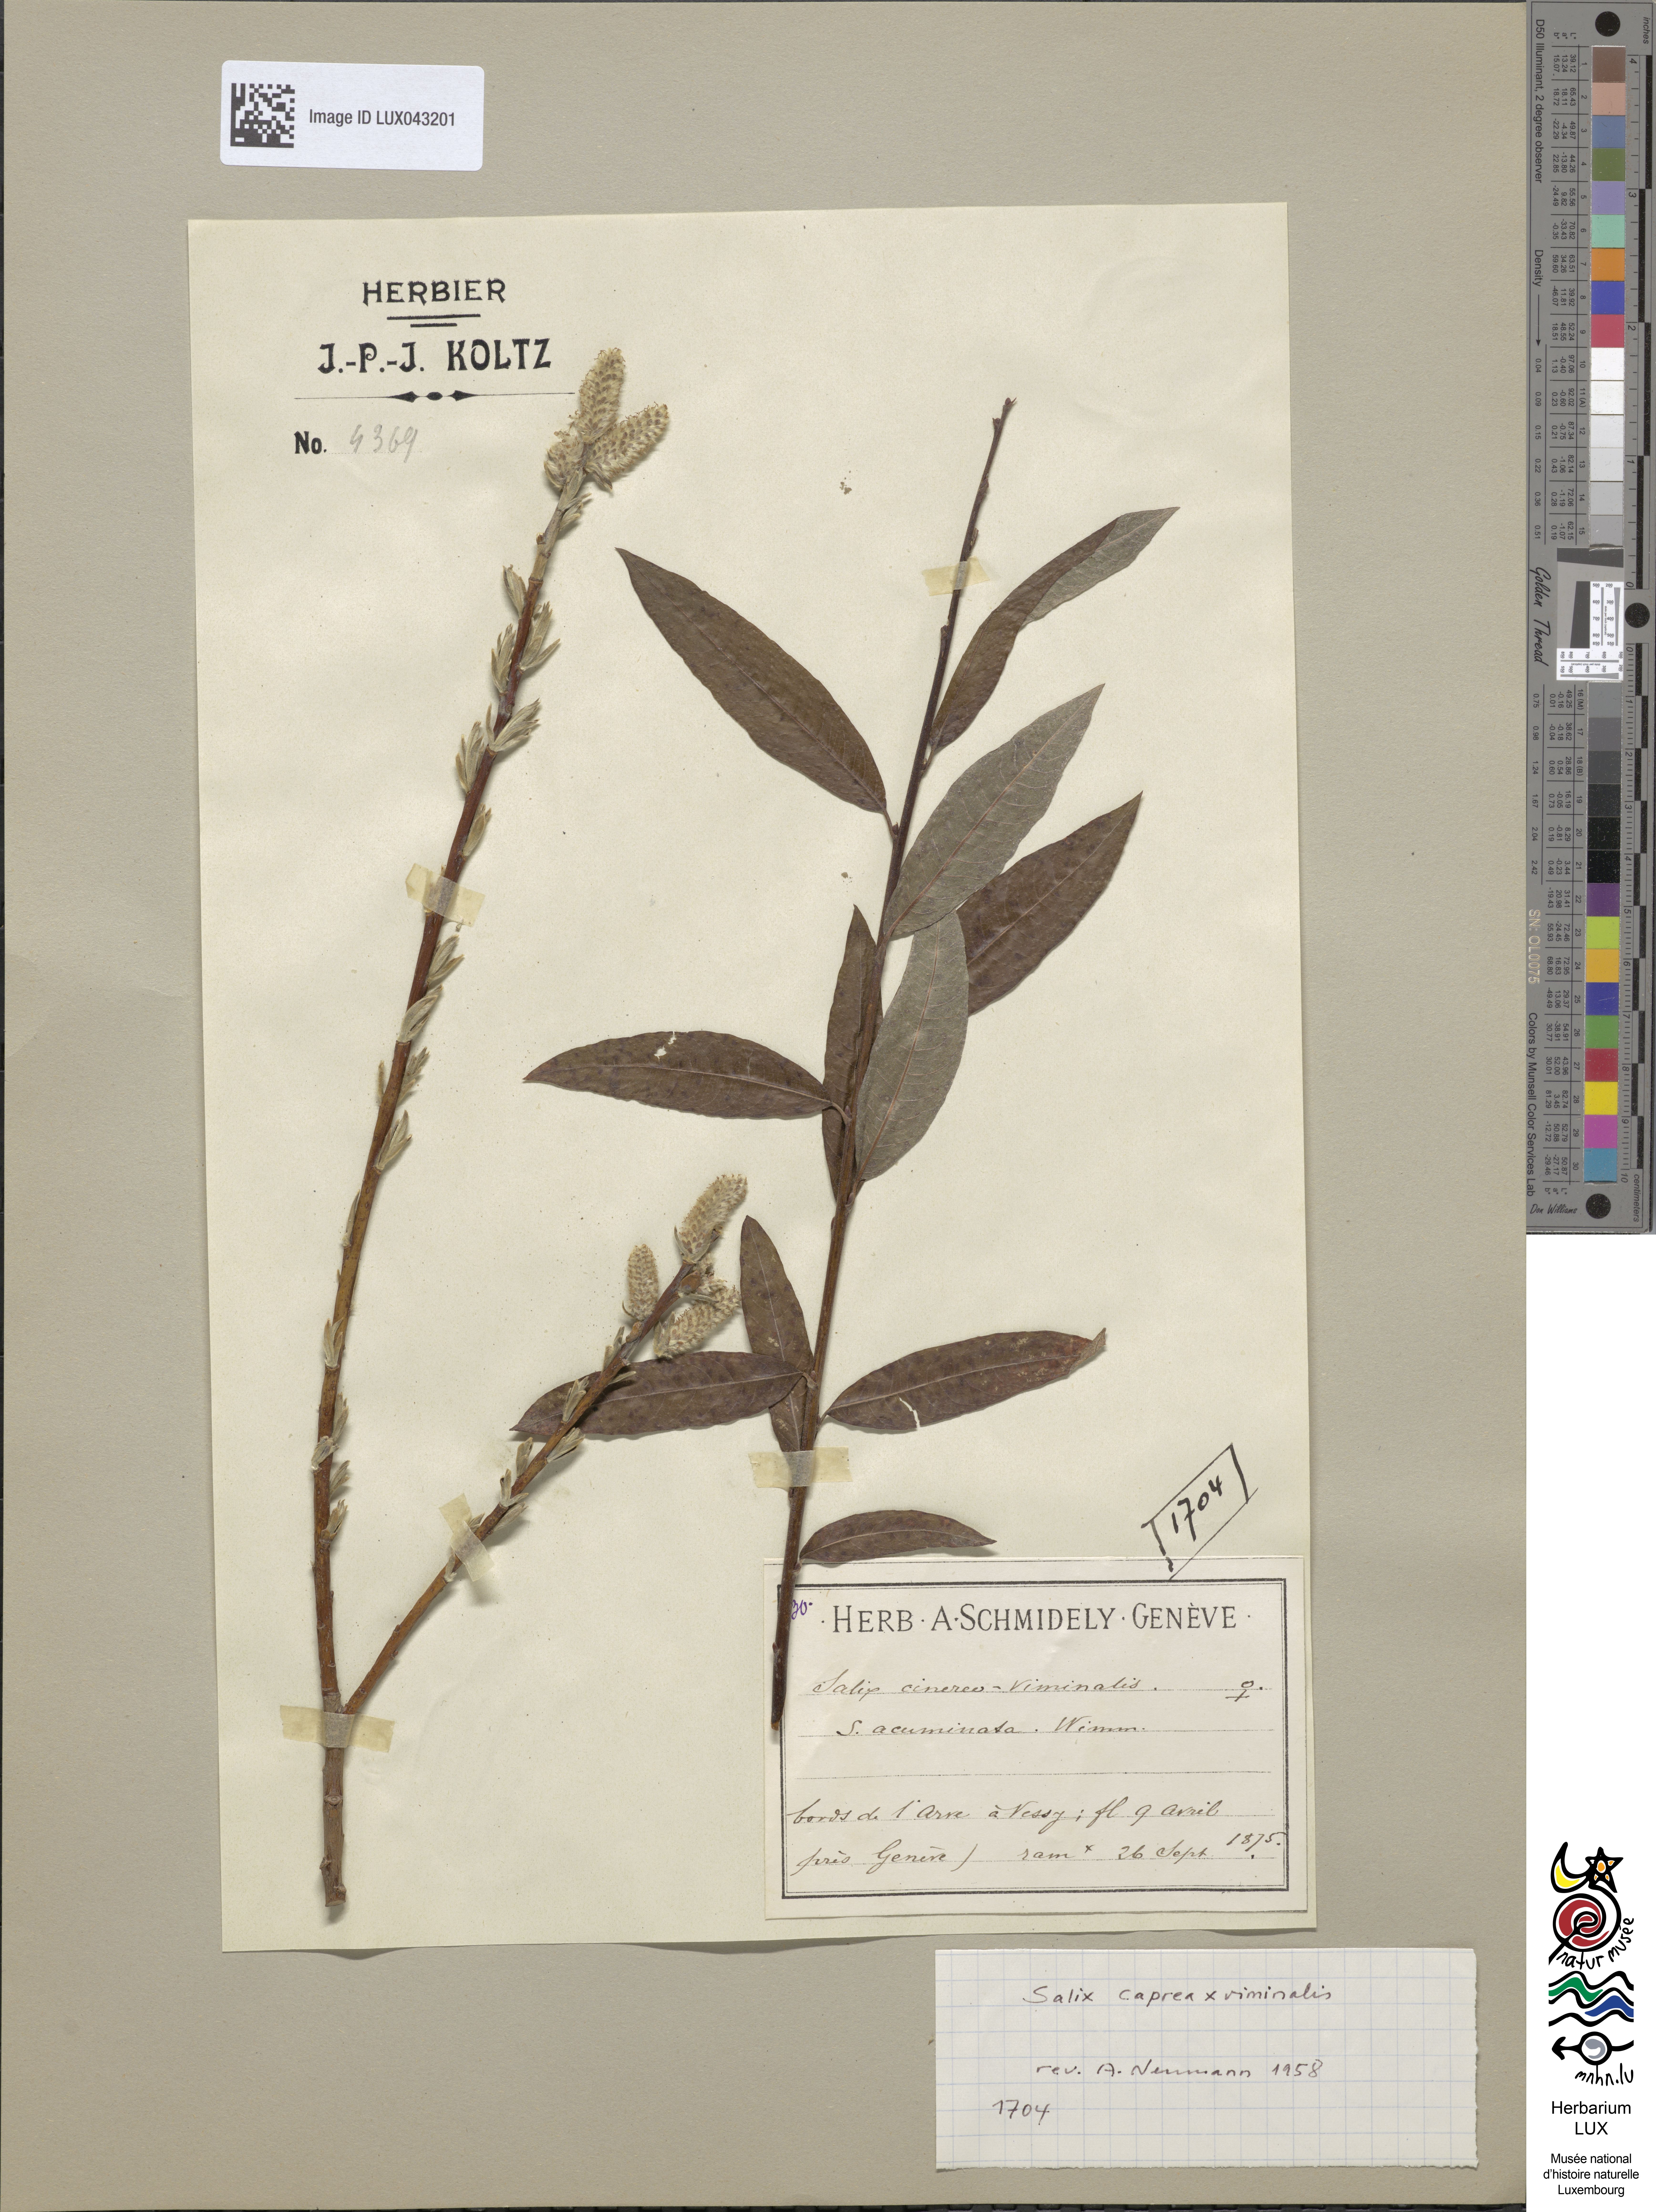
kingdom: Plantae
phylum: Tracheophyta
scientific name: Tracheophyta
